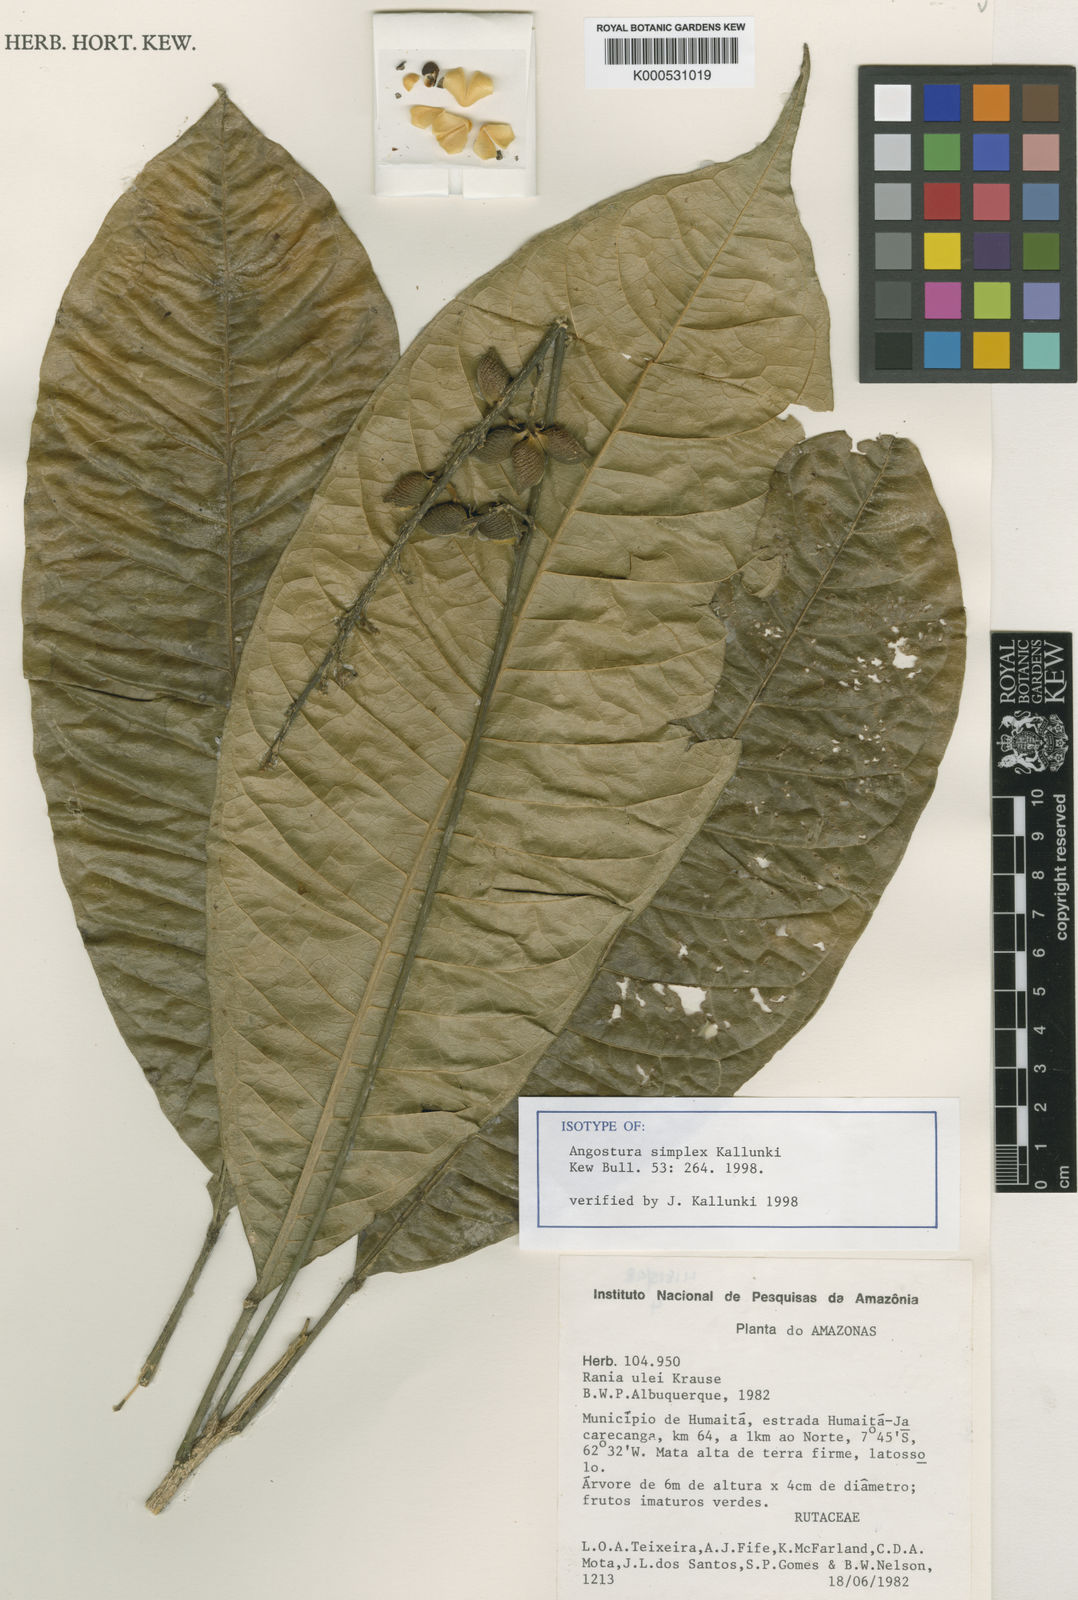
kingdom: Plantae
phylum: Tracheophyta
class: Magnoliopsida
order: Sapindales
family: Rutaceae
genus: Angostura
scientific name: Angostura simplex
